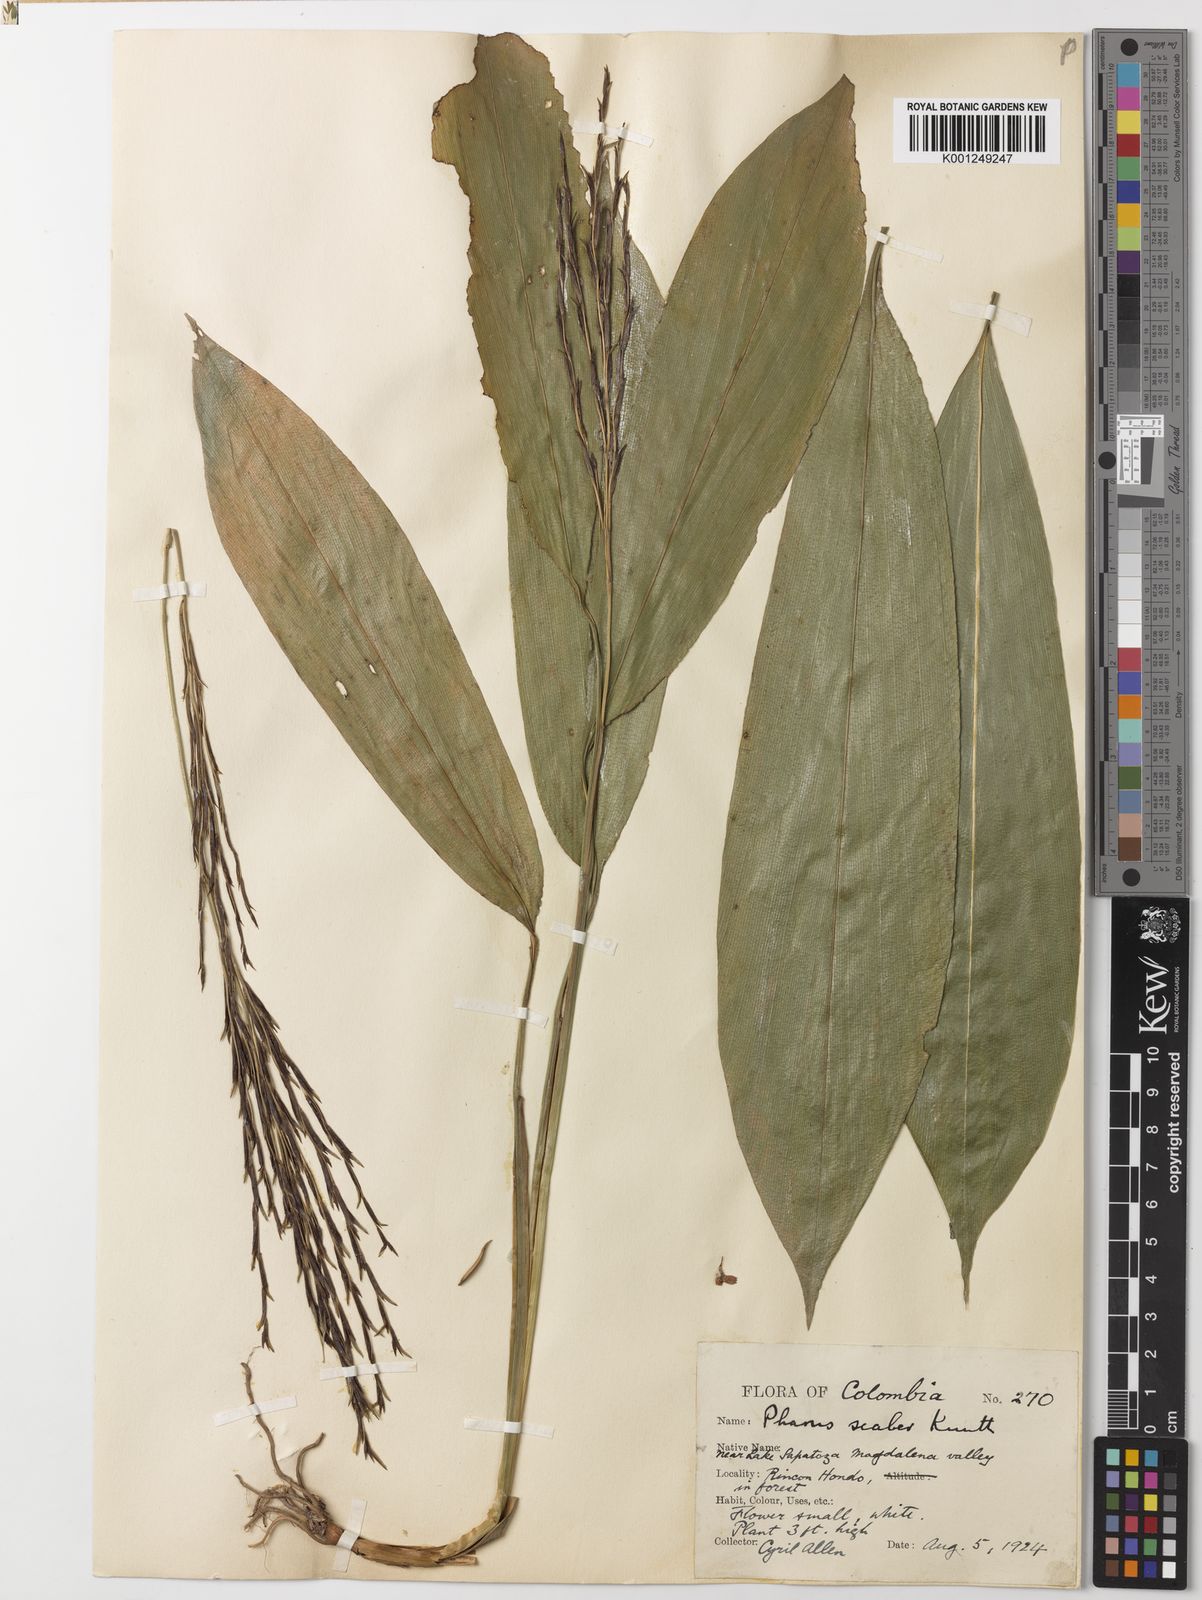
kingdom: Plantae
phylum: Tracheophyta
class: Liliopsida
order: Poales
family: Poaceae
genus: Pharus
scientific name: Pharus latifolius
